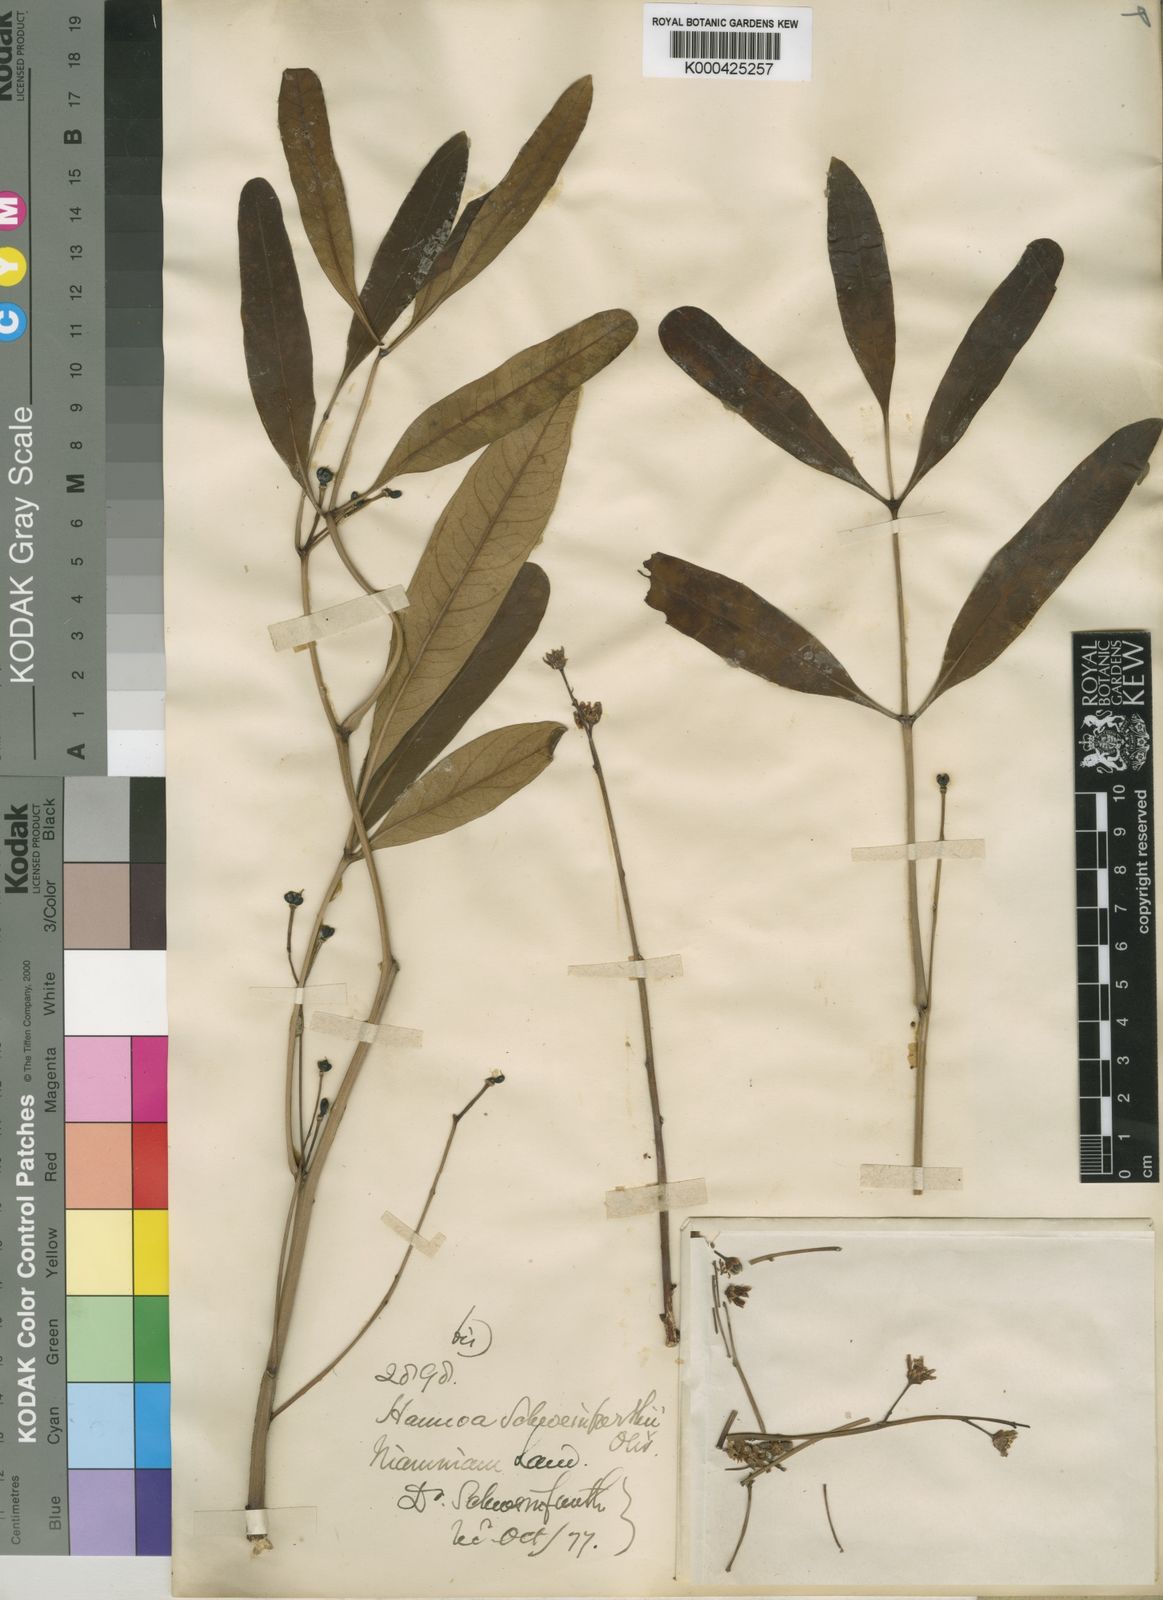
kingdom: Plantae
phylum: Tracheophyta
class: Magnoliopsida
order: Sapindales
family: Simaroubaceae
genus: Hannoa
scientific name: Hannoa schweinfurthii
